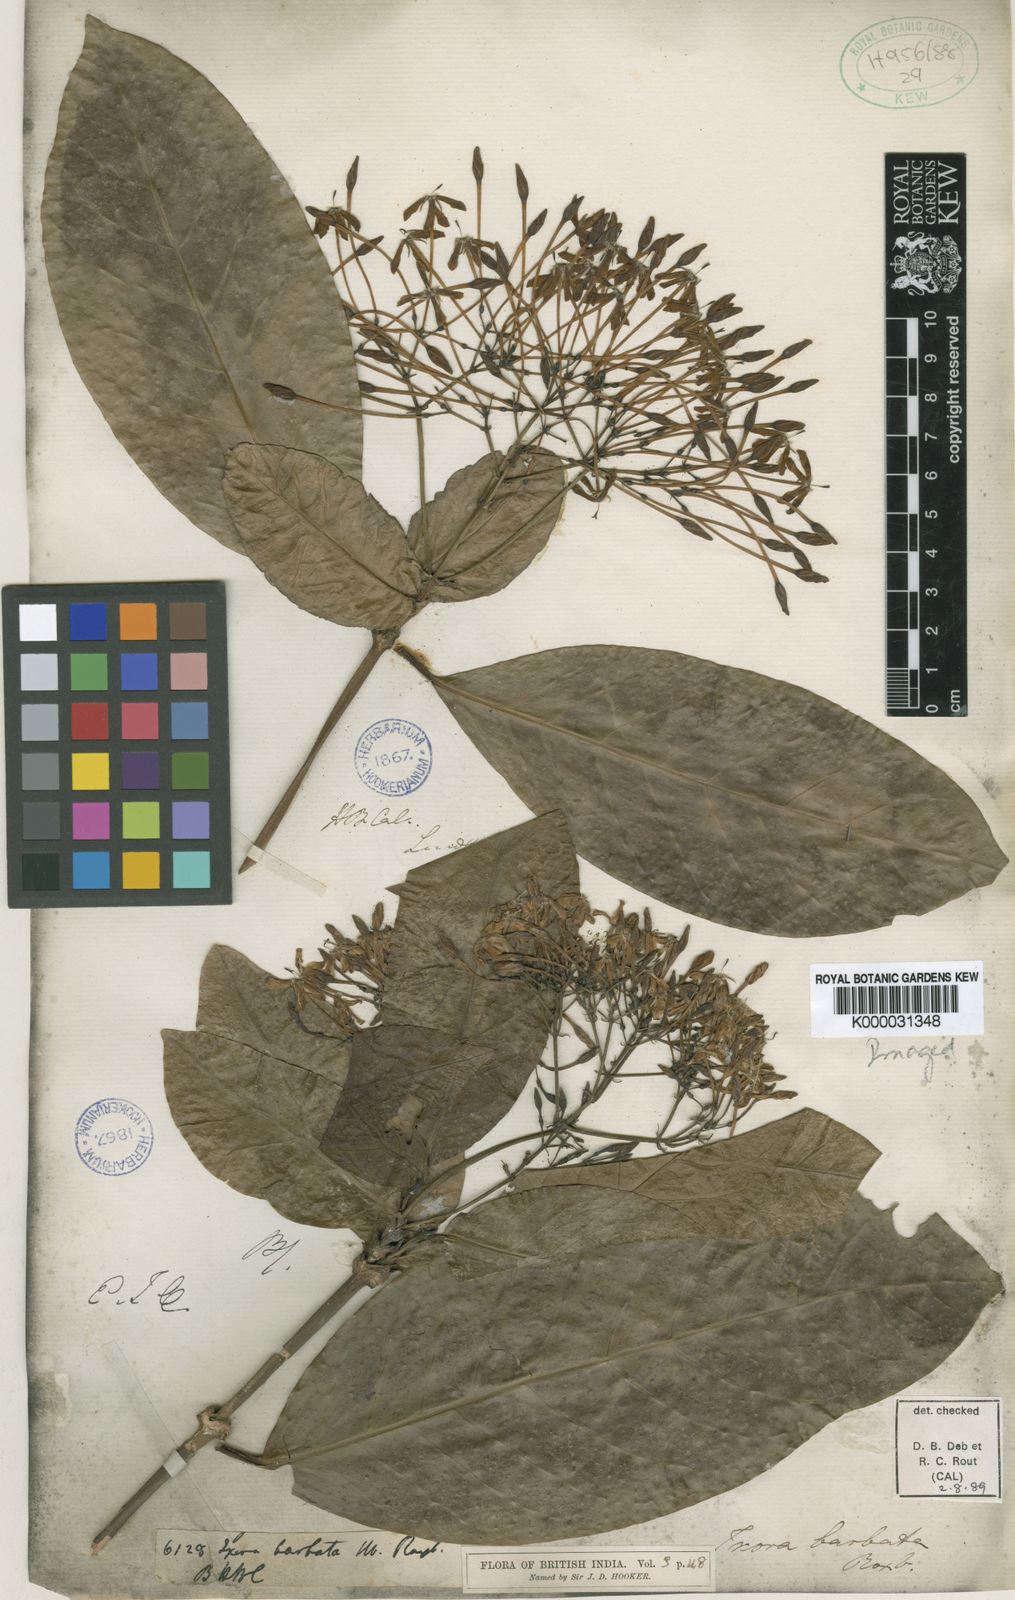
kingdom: Plantae
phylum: Tracheophyta
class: Magnoliopsida
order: Gentianales
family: Rubiaceae
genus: Ixora
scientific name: Ixora
